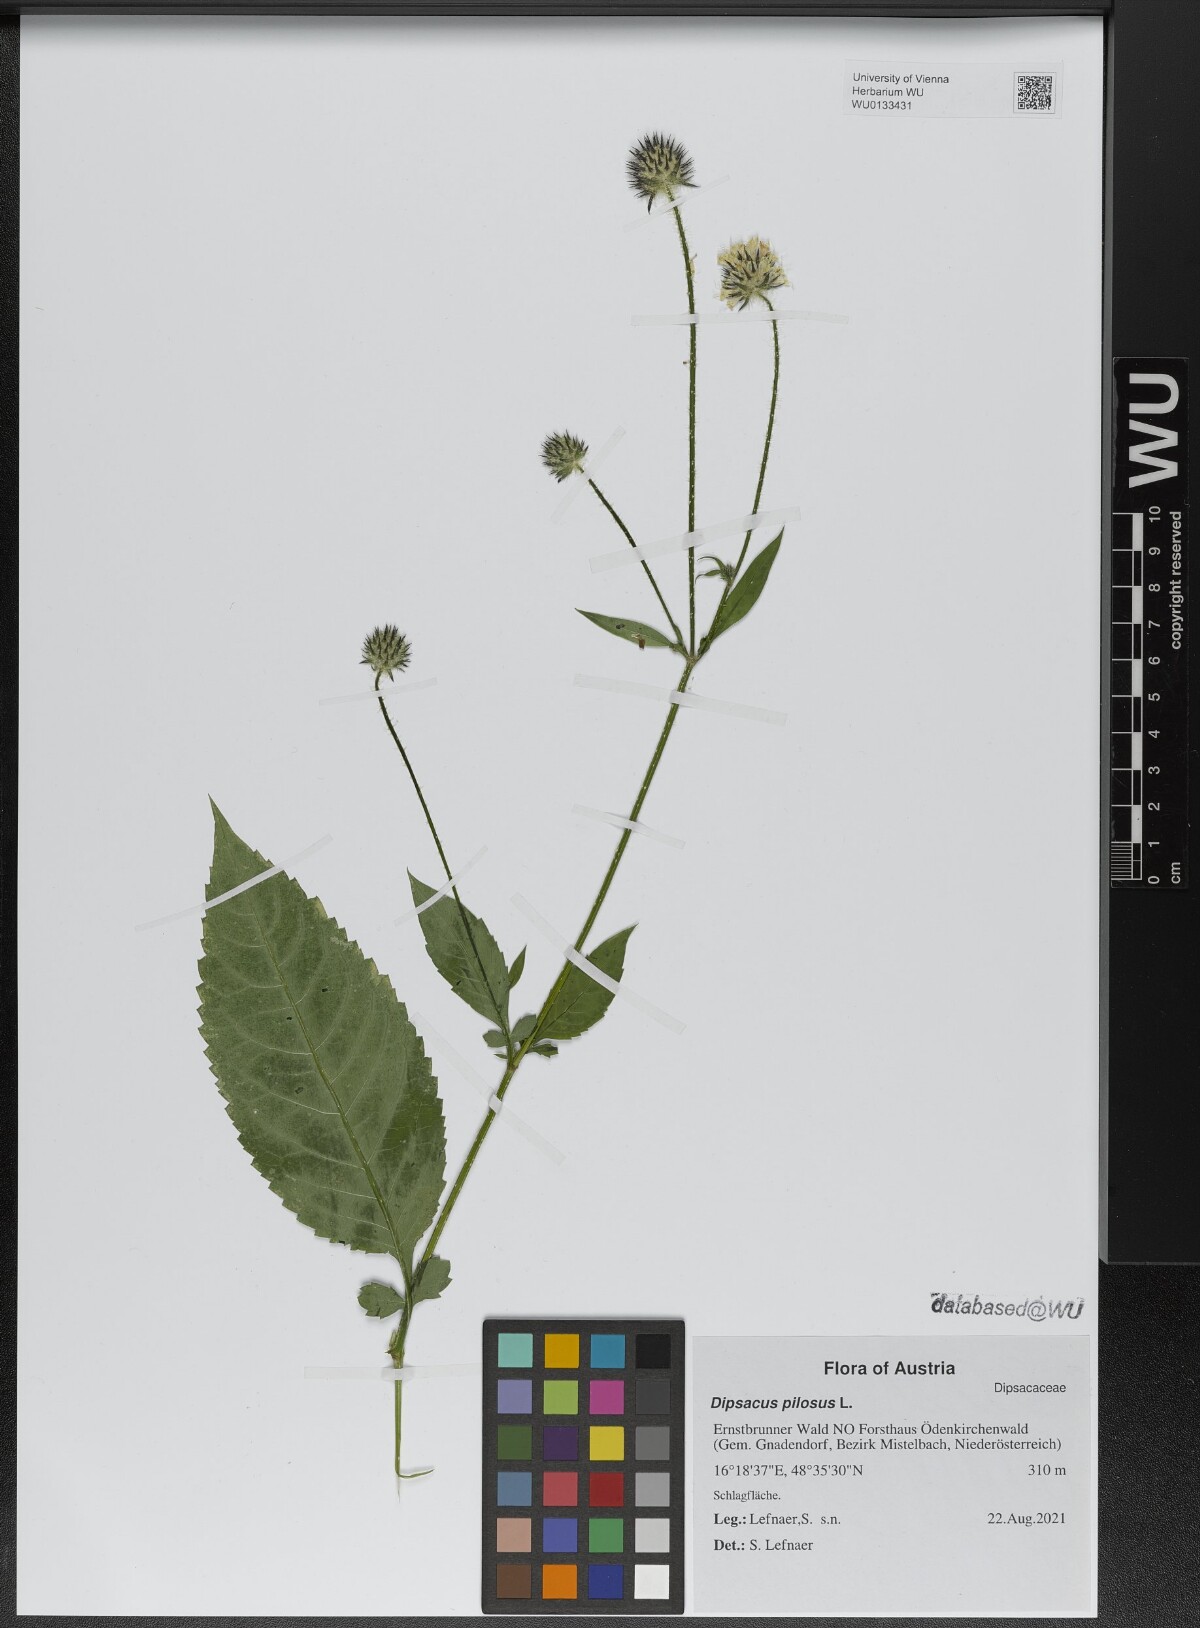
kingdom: Plantae
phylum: Tracheophyta
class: Magnoliopsida
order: Dipsacales
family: Caprifoliaceae
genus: Dipsacus
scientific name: Dipsacus pilosus
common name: Small teasel
